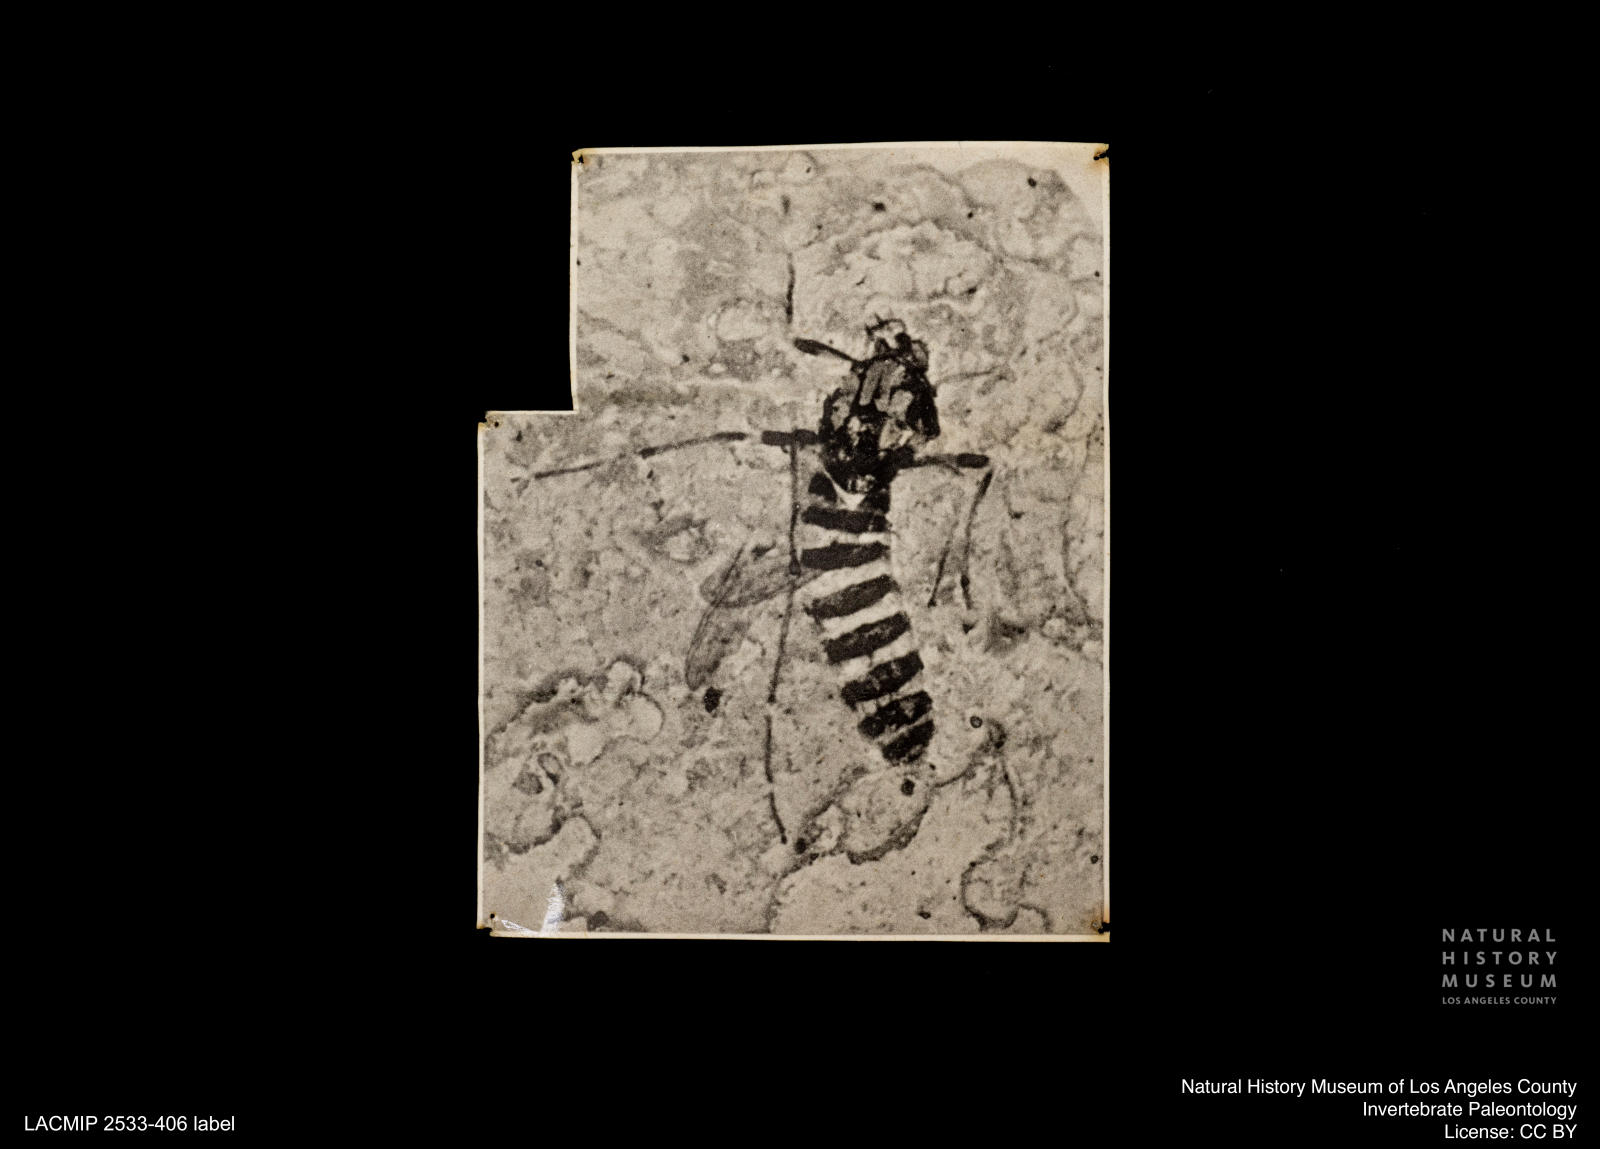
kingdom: Animalia
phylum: Arthropoda
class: Insecta
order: Diptera
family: Chironomidae
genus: Tanypus
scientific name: Tanypus dorminans
